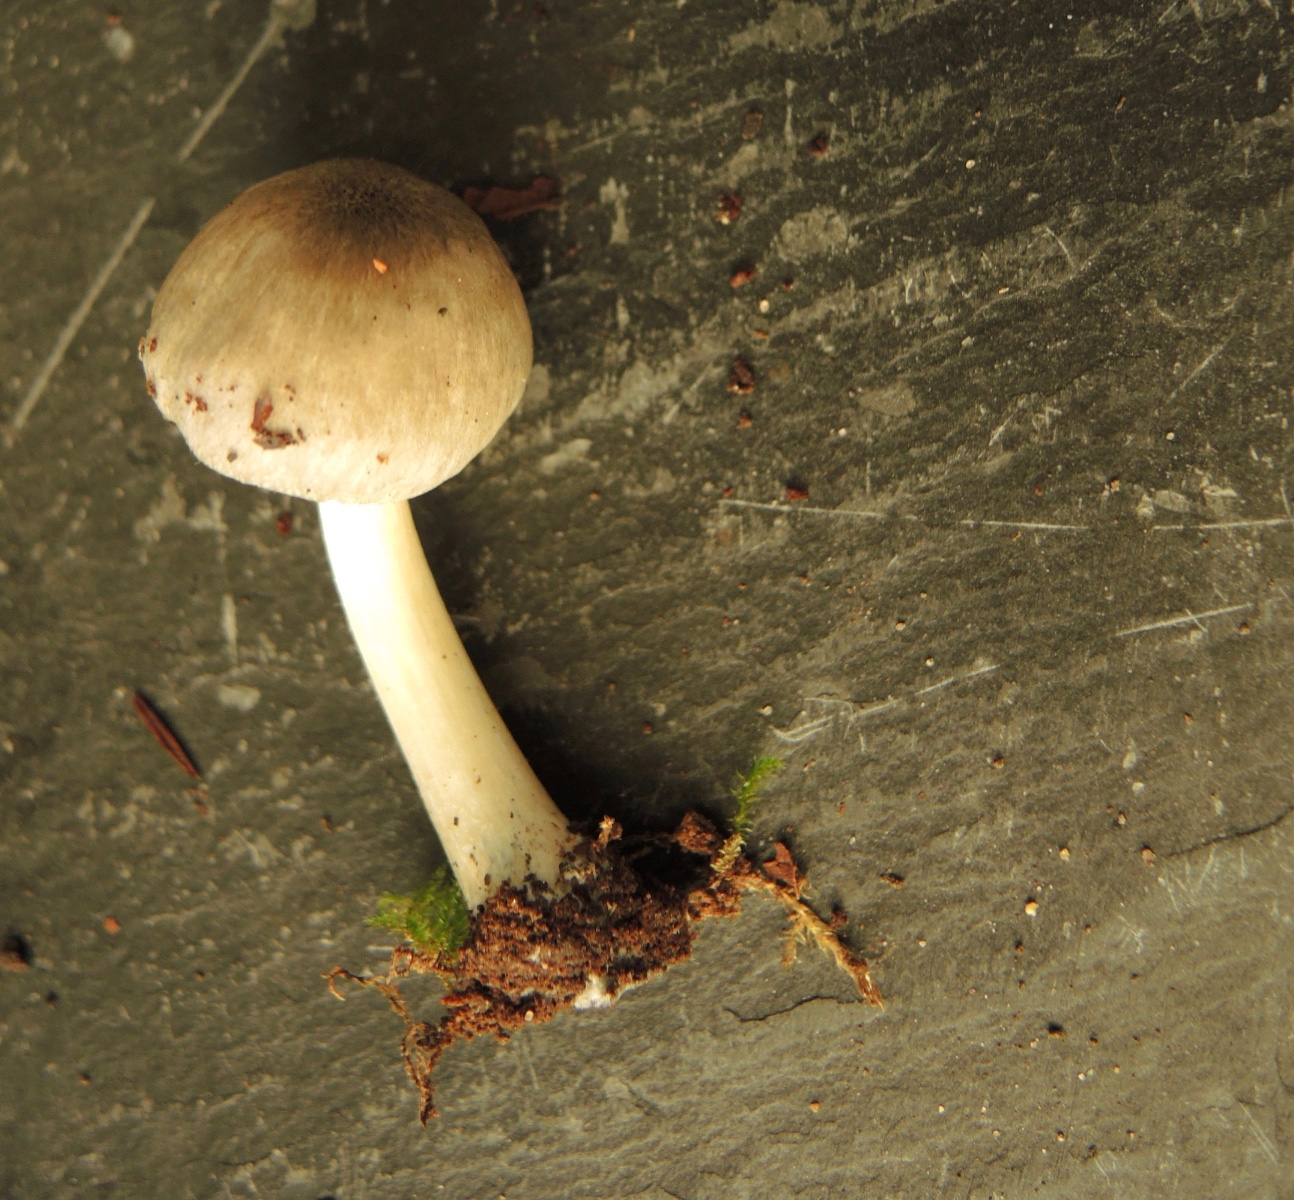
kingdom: Fungi
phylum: Basidiomycota
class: Agaricomycetes
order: Agaricales
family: Pluteaceae
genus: Pluteus
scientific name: Pluteus salicinus
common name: stiv skærmhat
